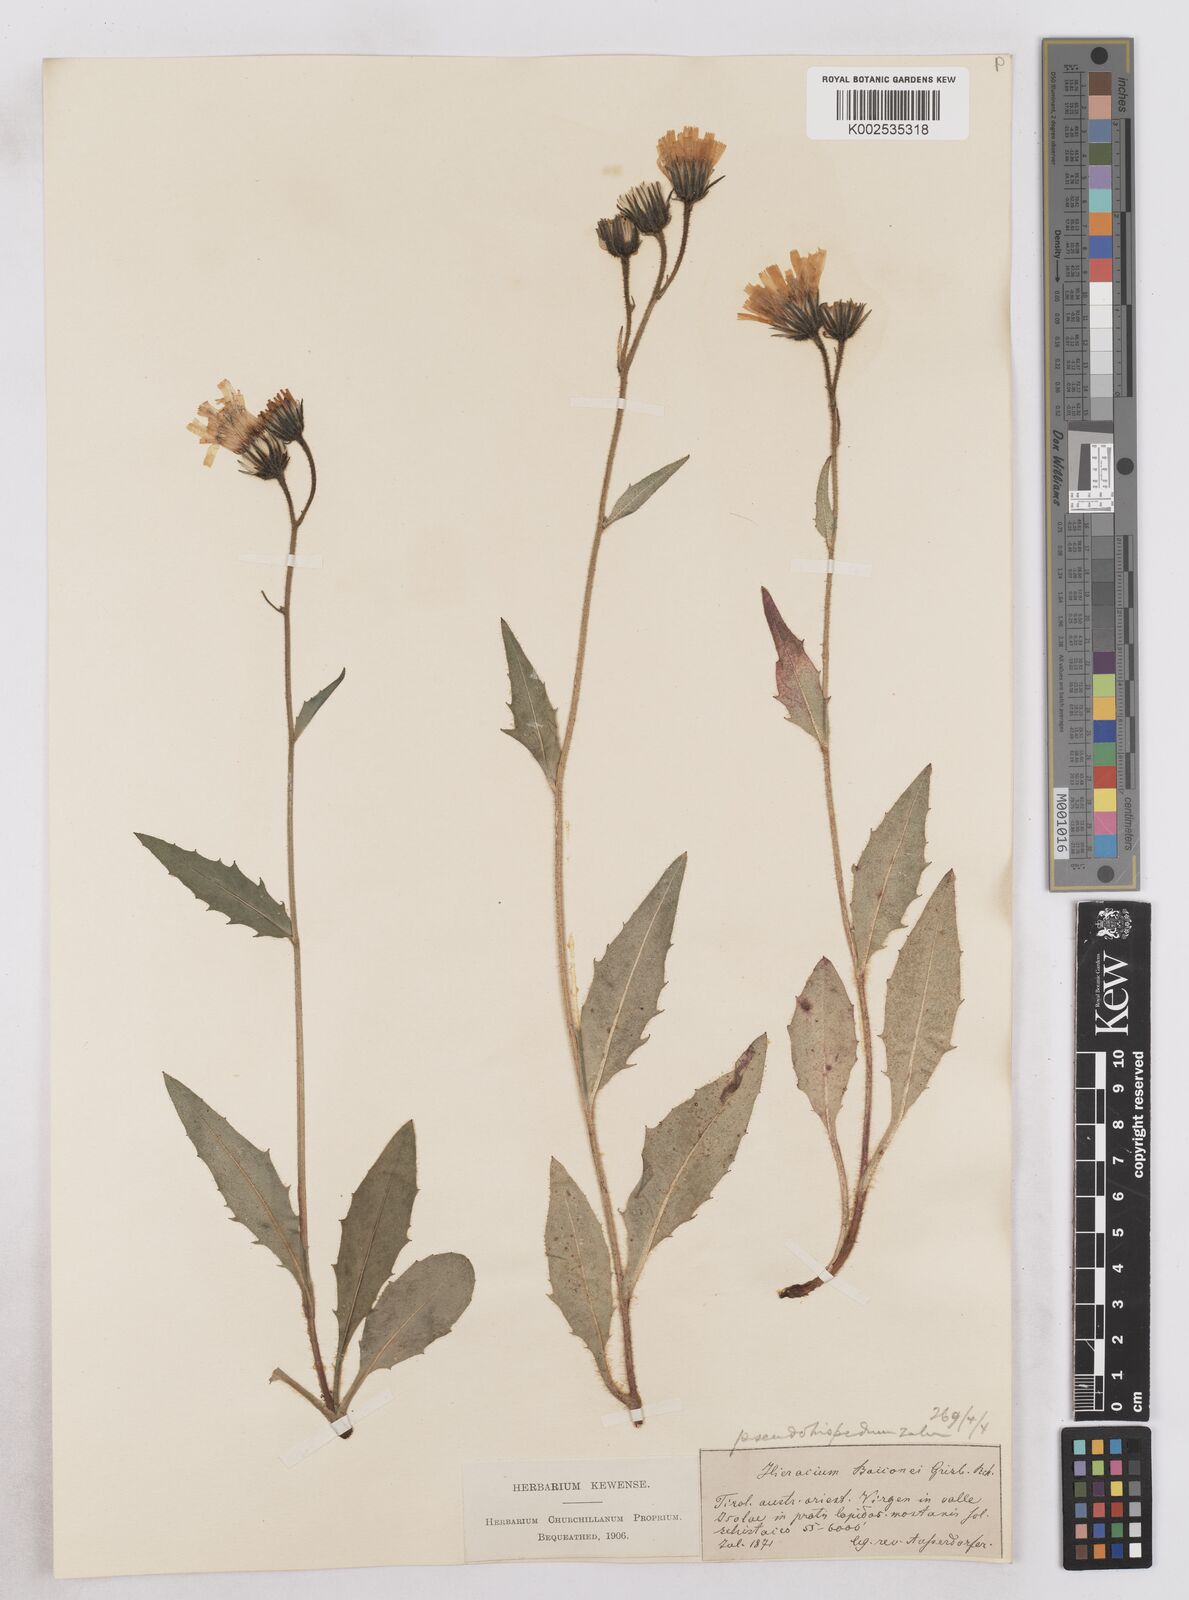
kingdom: Plantae
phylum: Tracheophyta
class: Magnoliopsida
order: Asterales
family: Asteraceae
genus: Hieracium
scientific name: Hieracium simia
